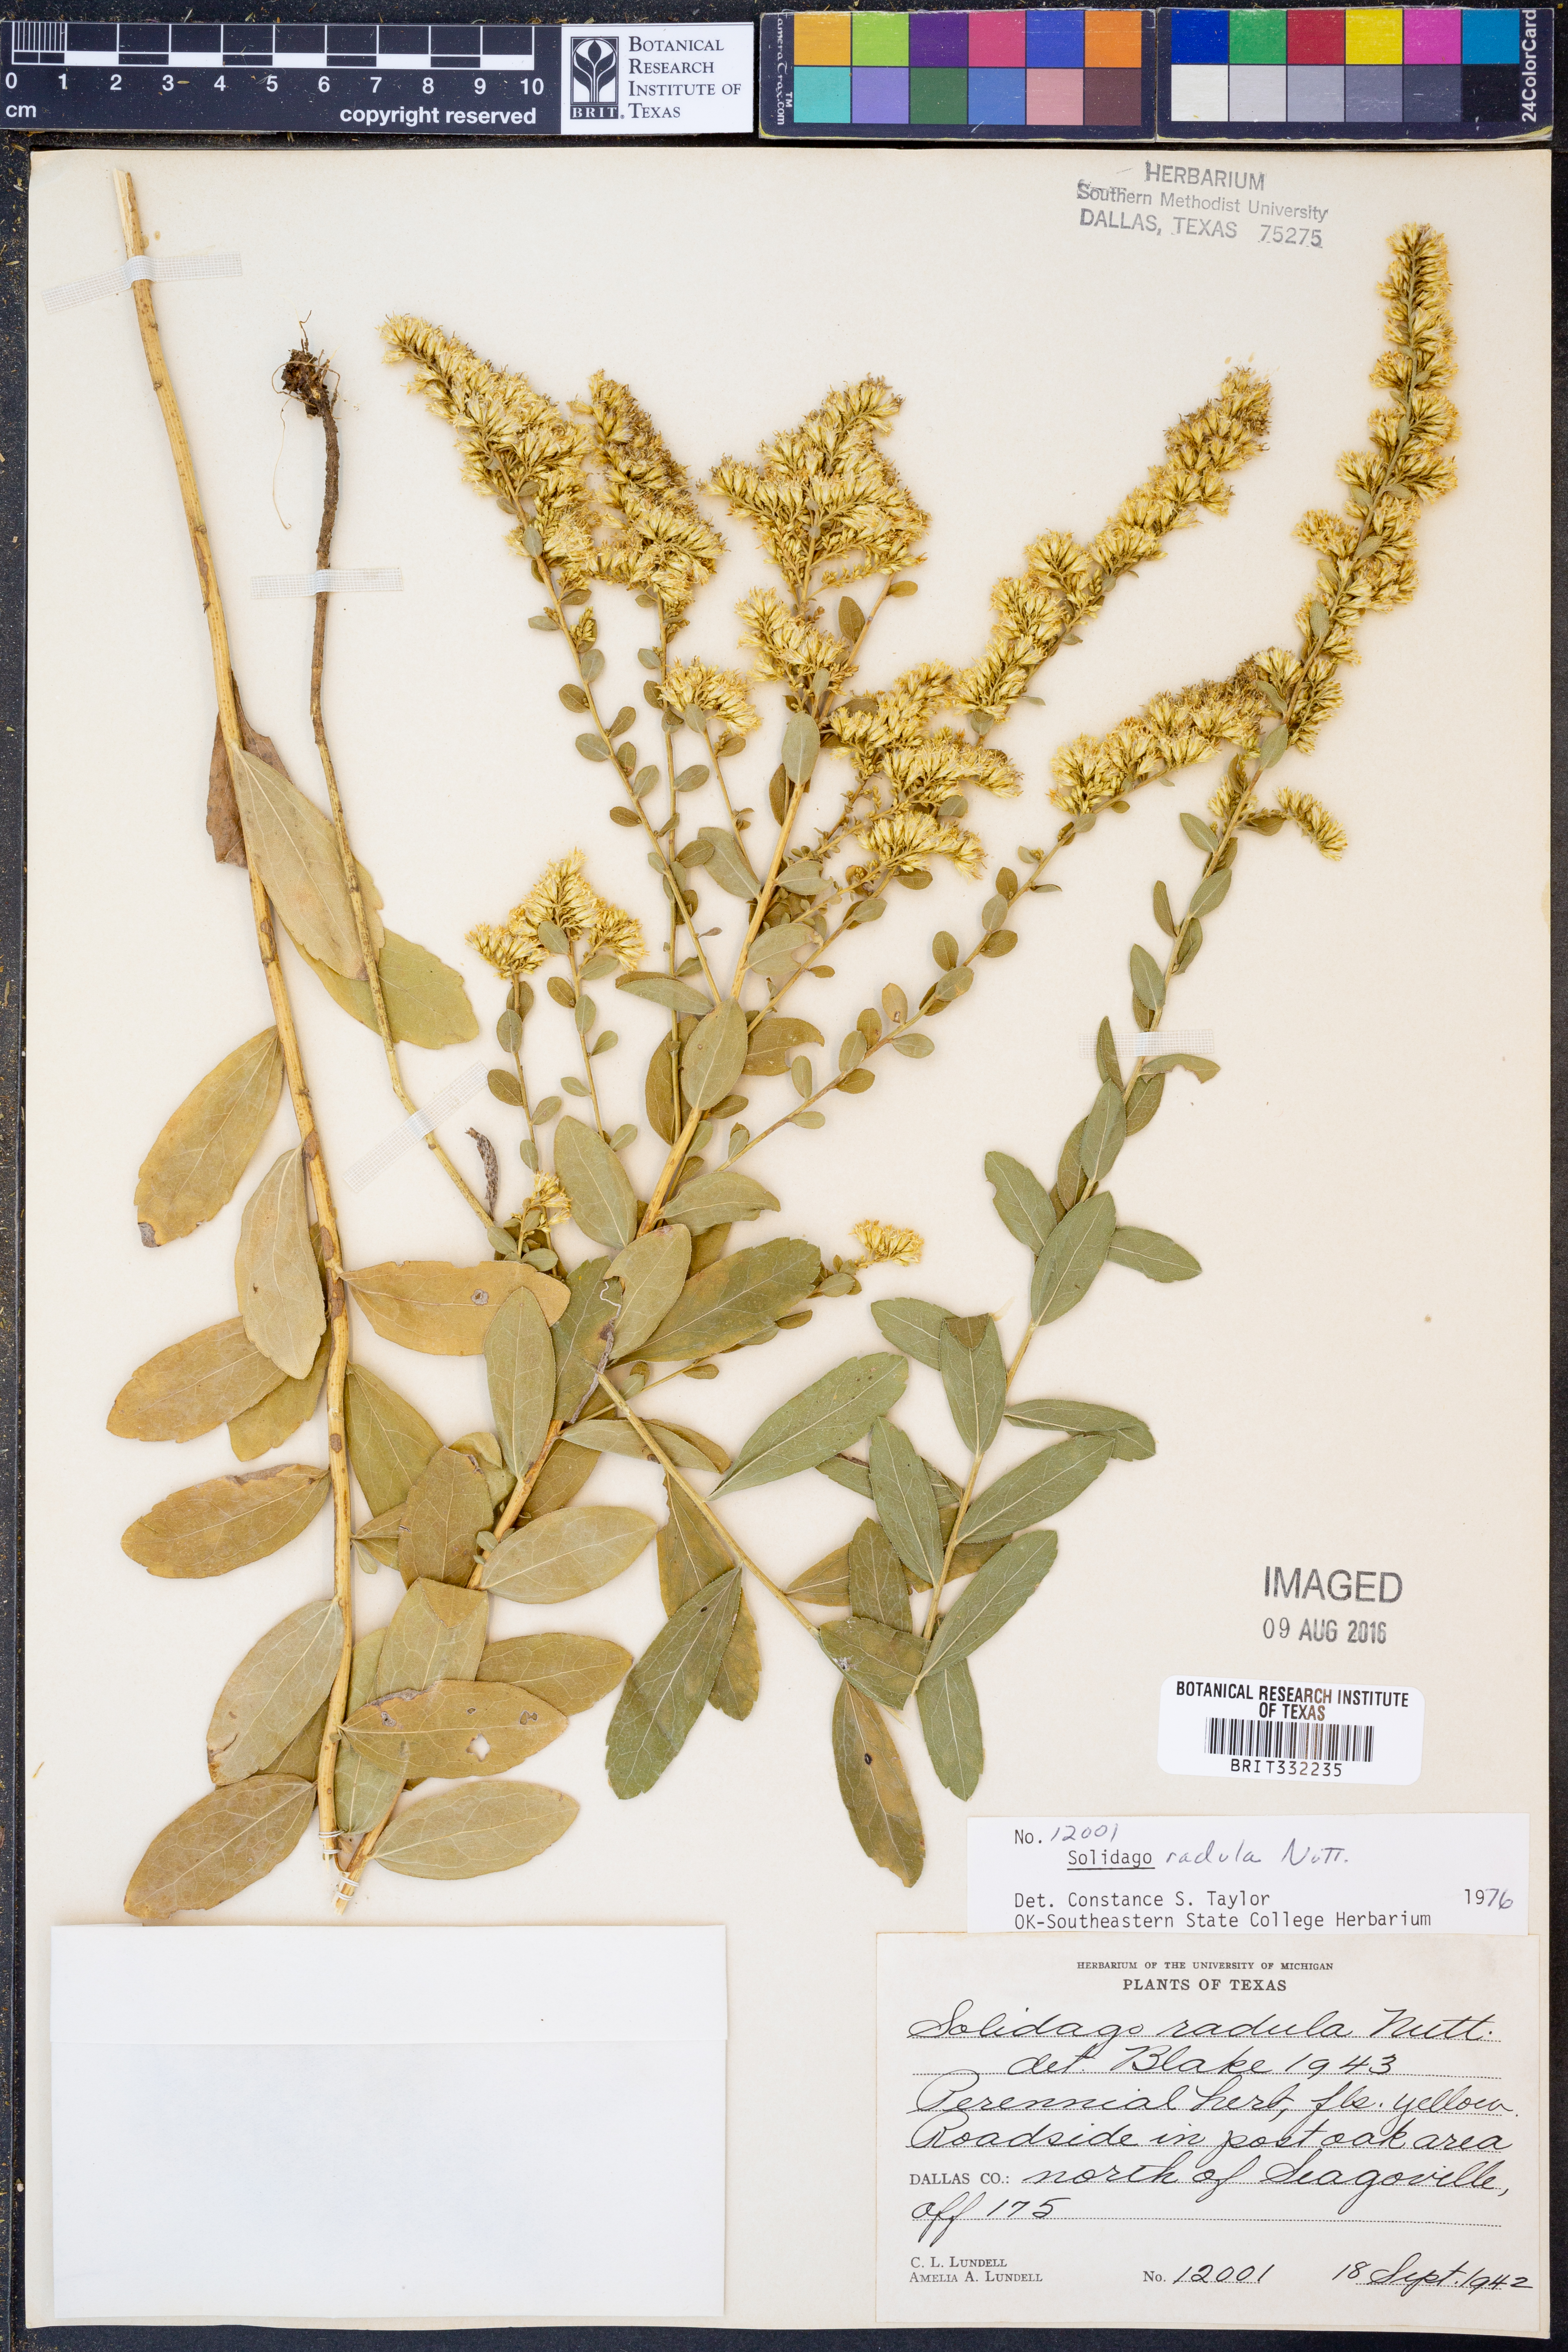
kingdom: Plantae
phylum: Tracheophyta
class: Magnoliopsida
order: Asterales
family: Asteraceae
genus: Solidago
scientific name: Solidago radula
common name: Western rough goldenrod
